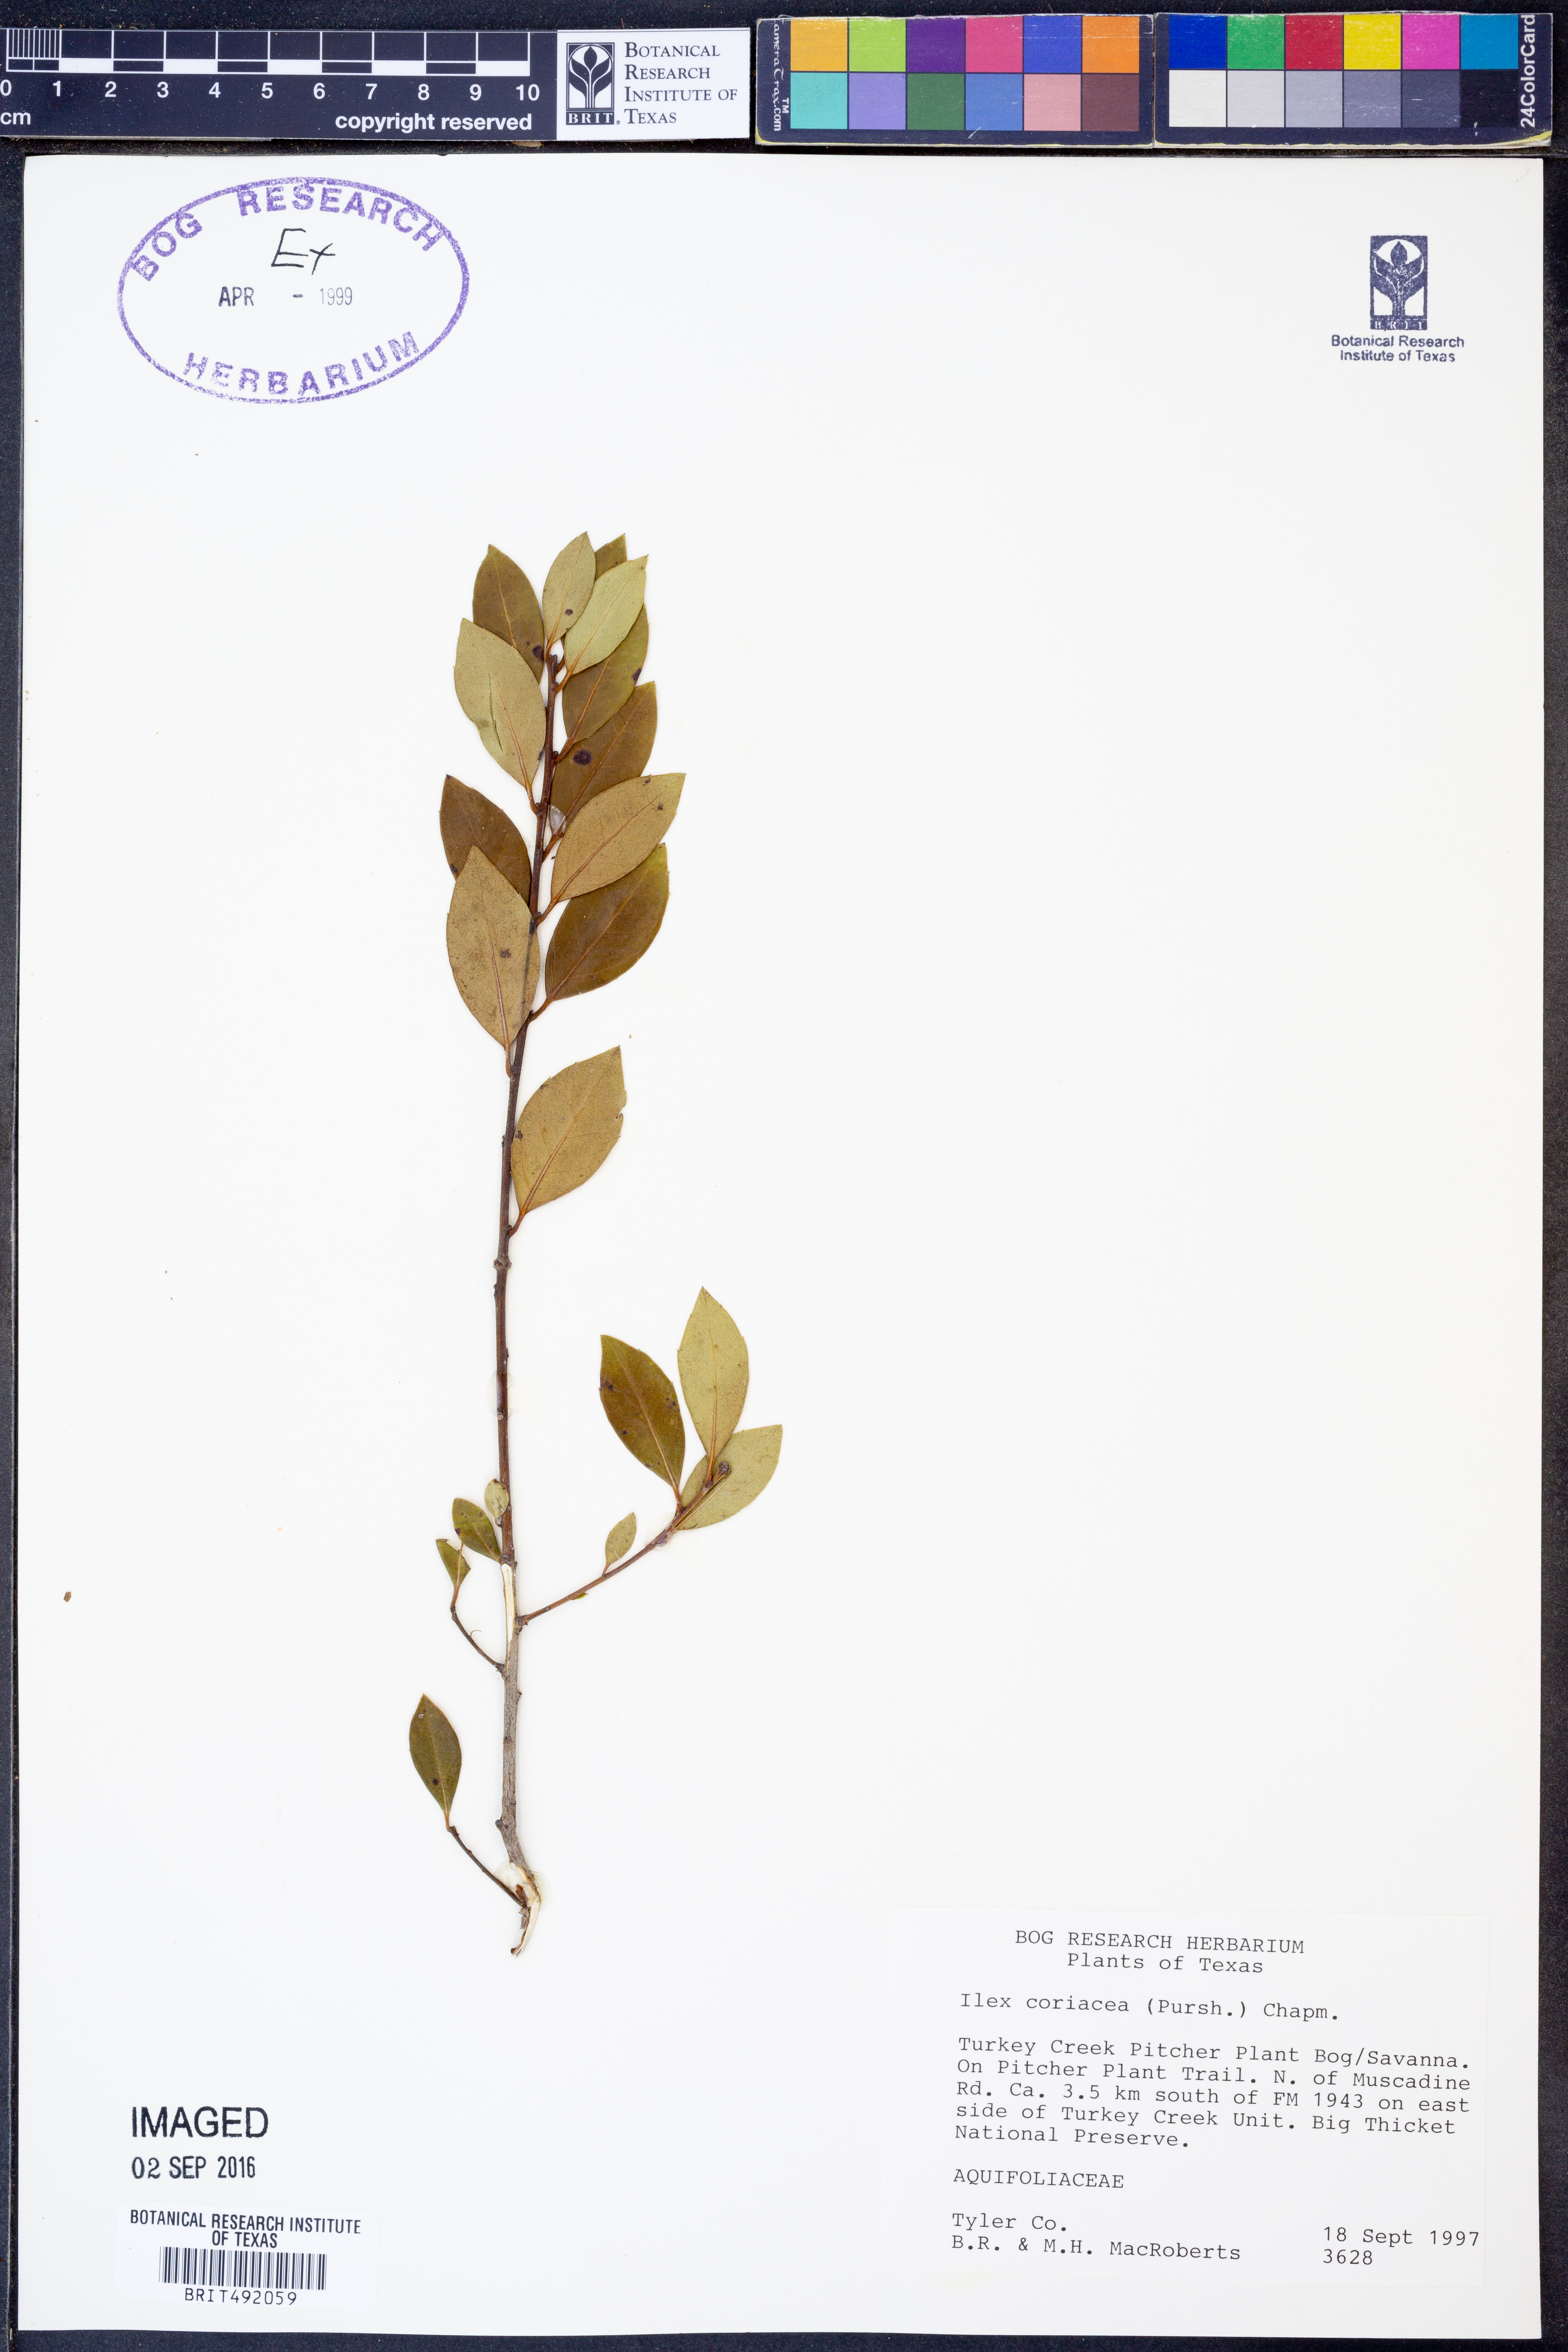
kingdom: Plantae
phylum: Tracheophyta
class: Magnoliopsida
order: Aquifoliales
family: Aquifoliaceae
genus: Ilex
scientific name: Ilex coriacea
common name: Sweet gallberry
